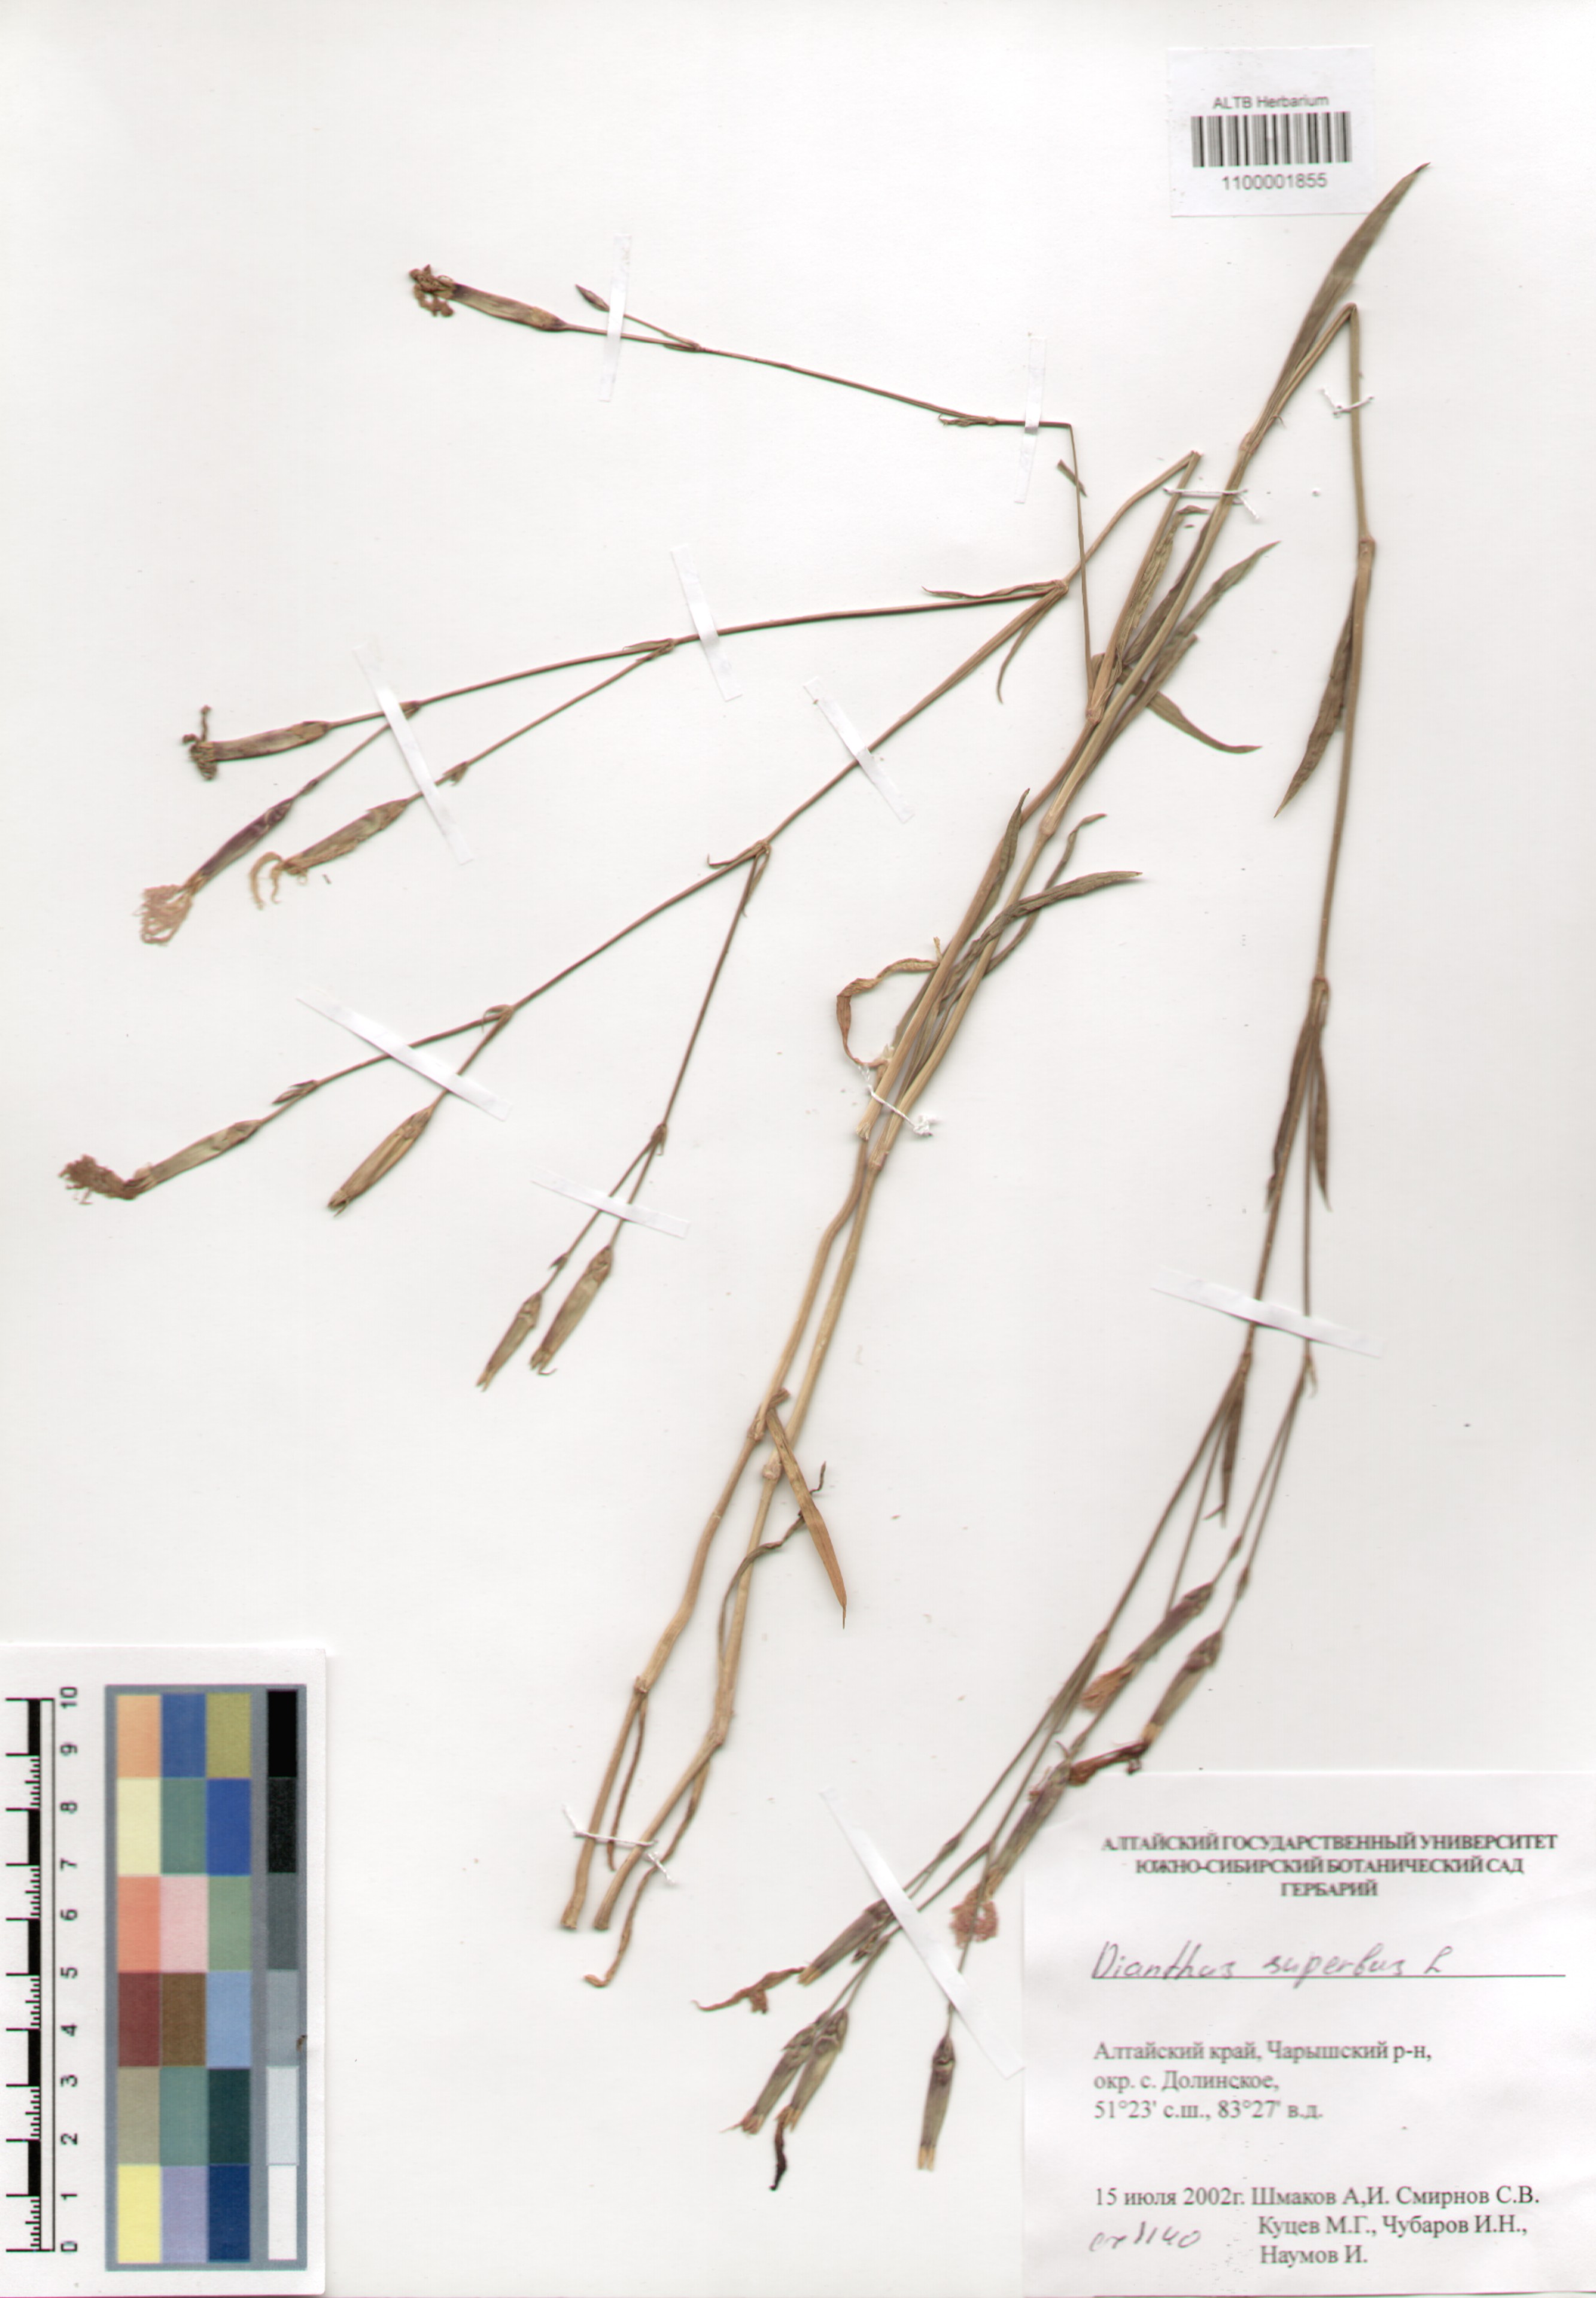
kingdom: Plantae
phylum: Tracheophyta
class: Magnoliopsida
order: Caryophyllales
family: Caryophyllaceae
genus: Dianthus
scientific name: Dianthus superbus
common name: Fringed pink
